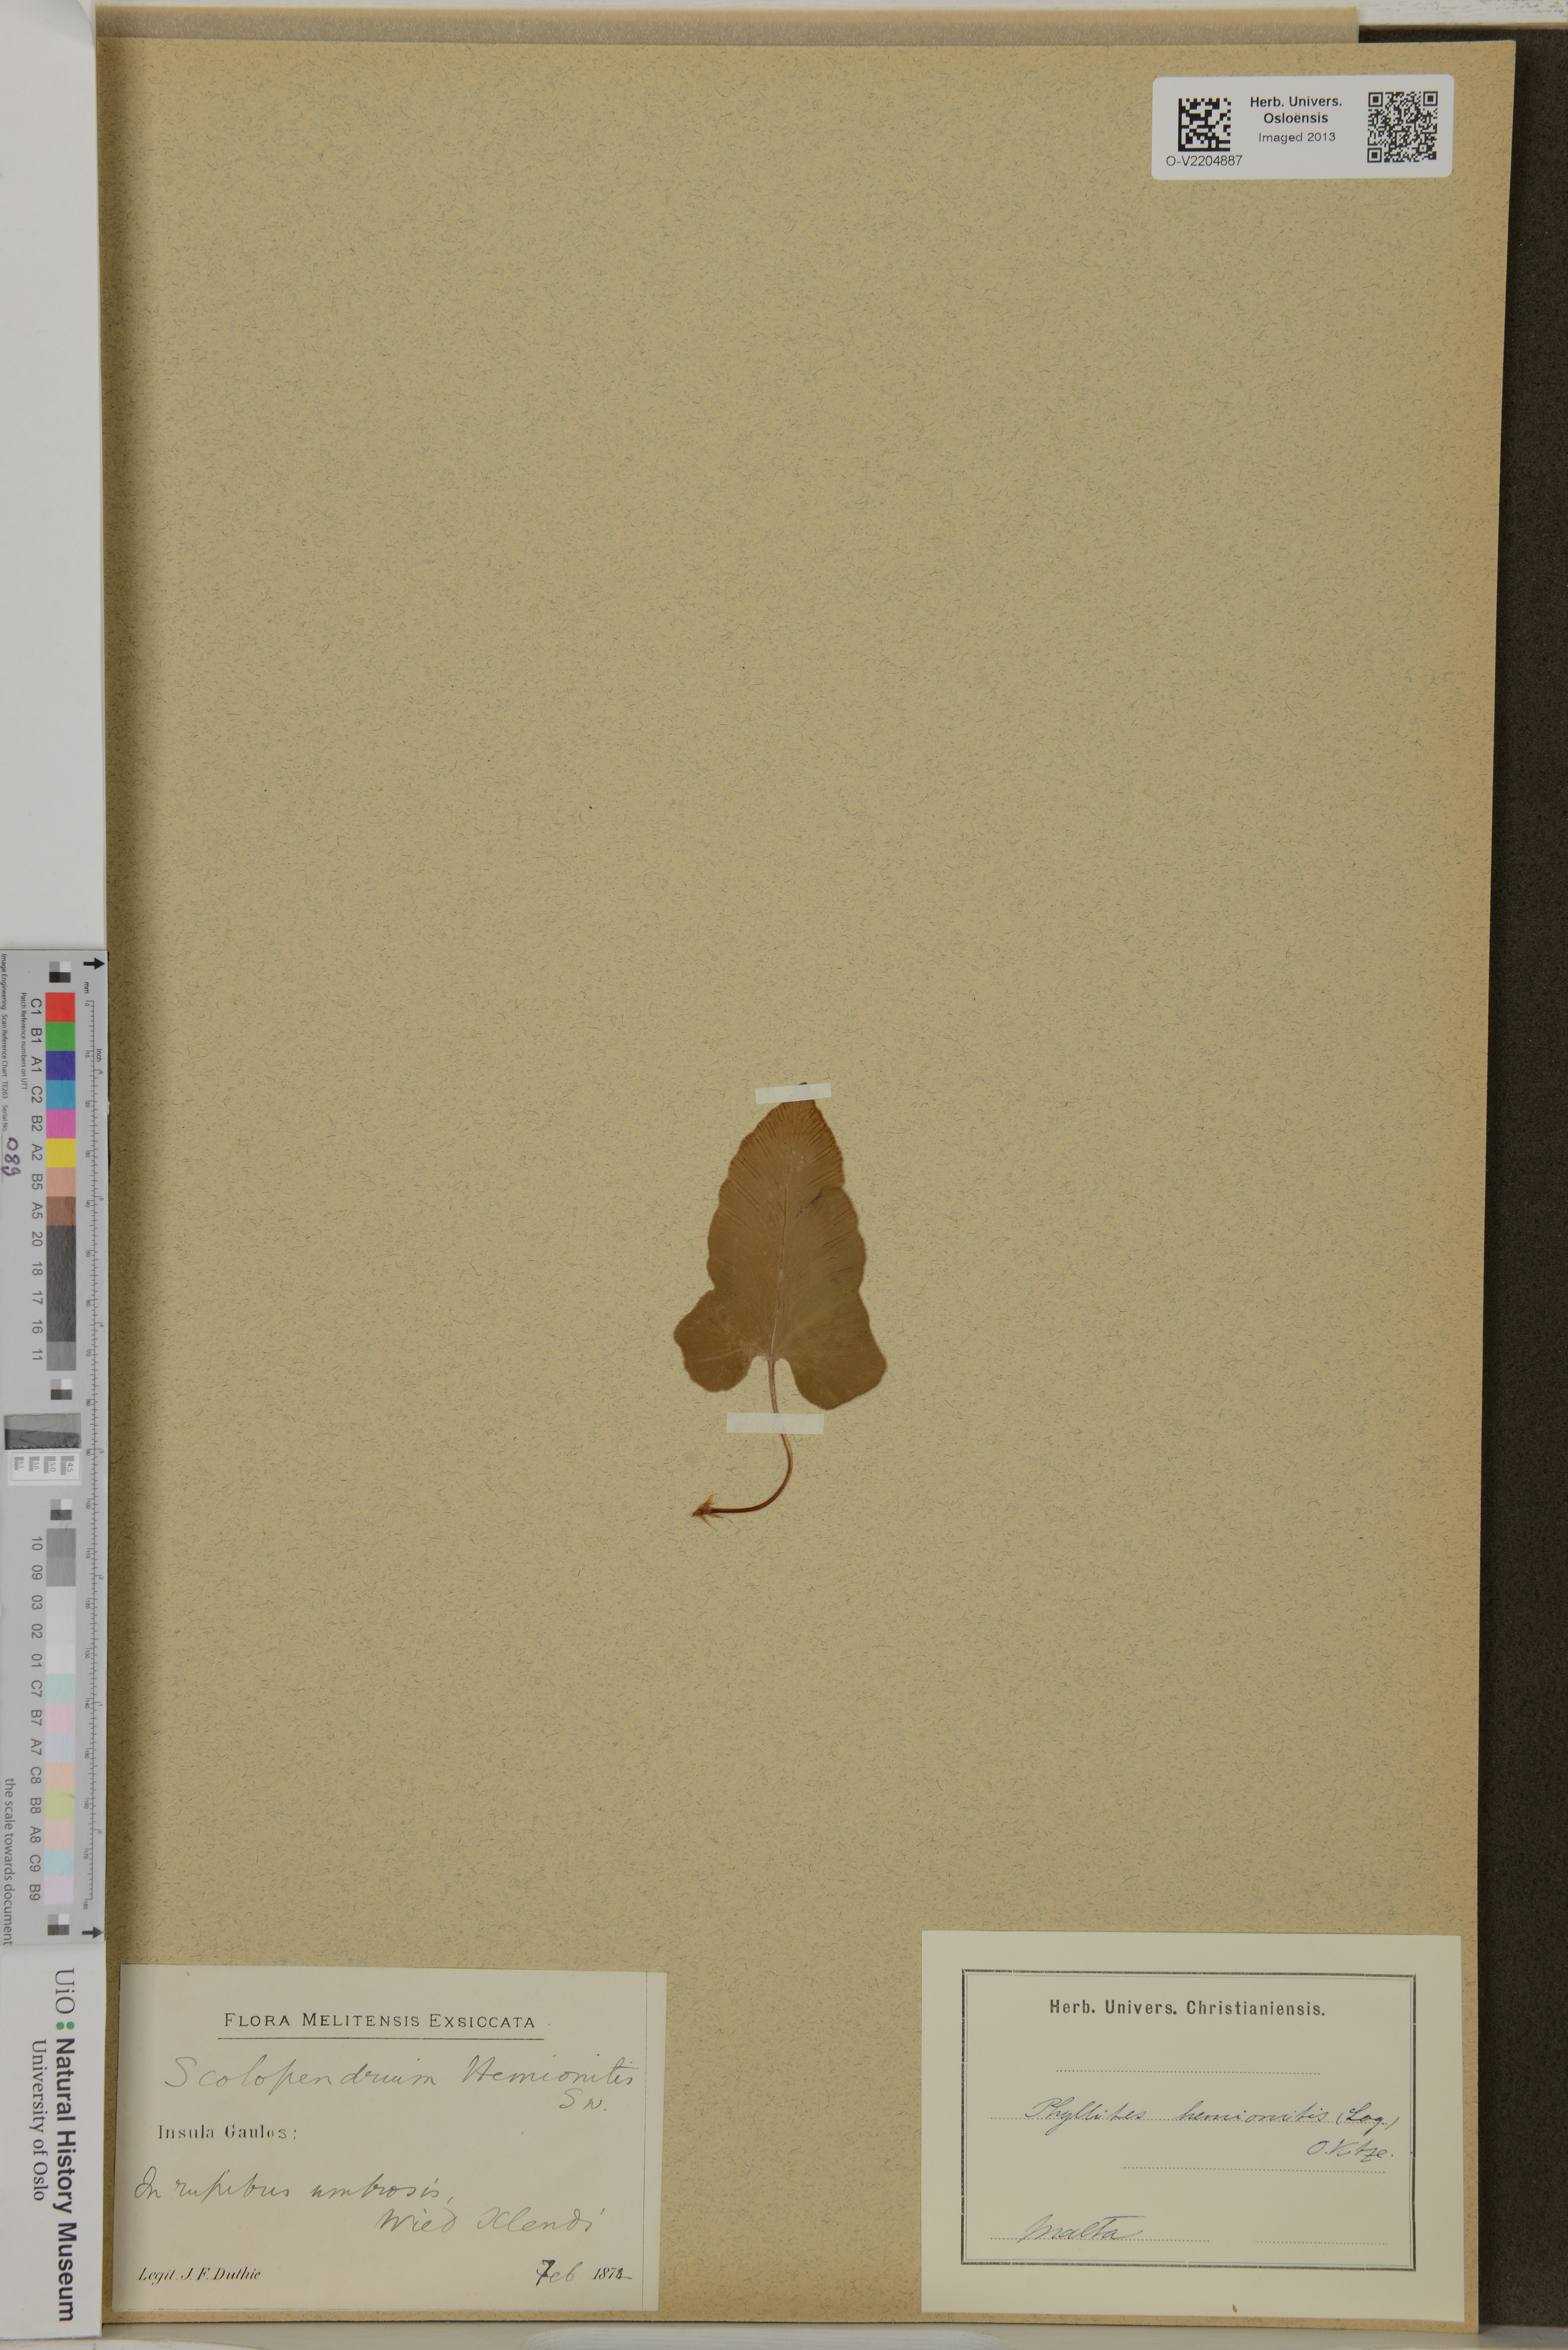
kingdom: Plantae
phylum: Tracheophyta
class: Polypodiopsida
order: Polypodiales
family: Aspleniaceae
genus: Asplenium
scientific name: Asplenium sagittatum
